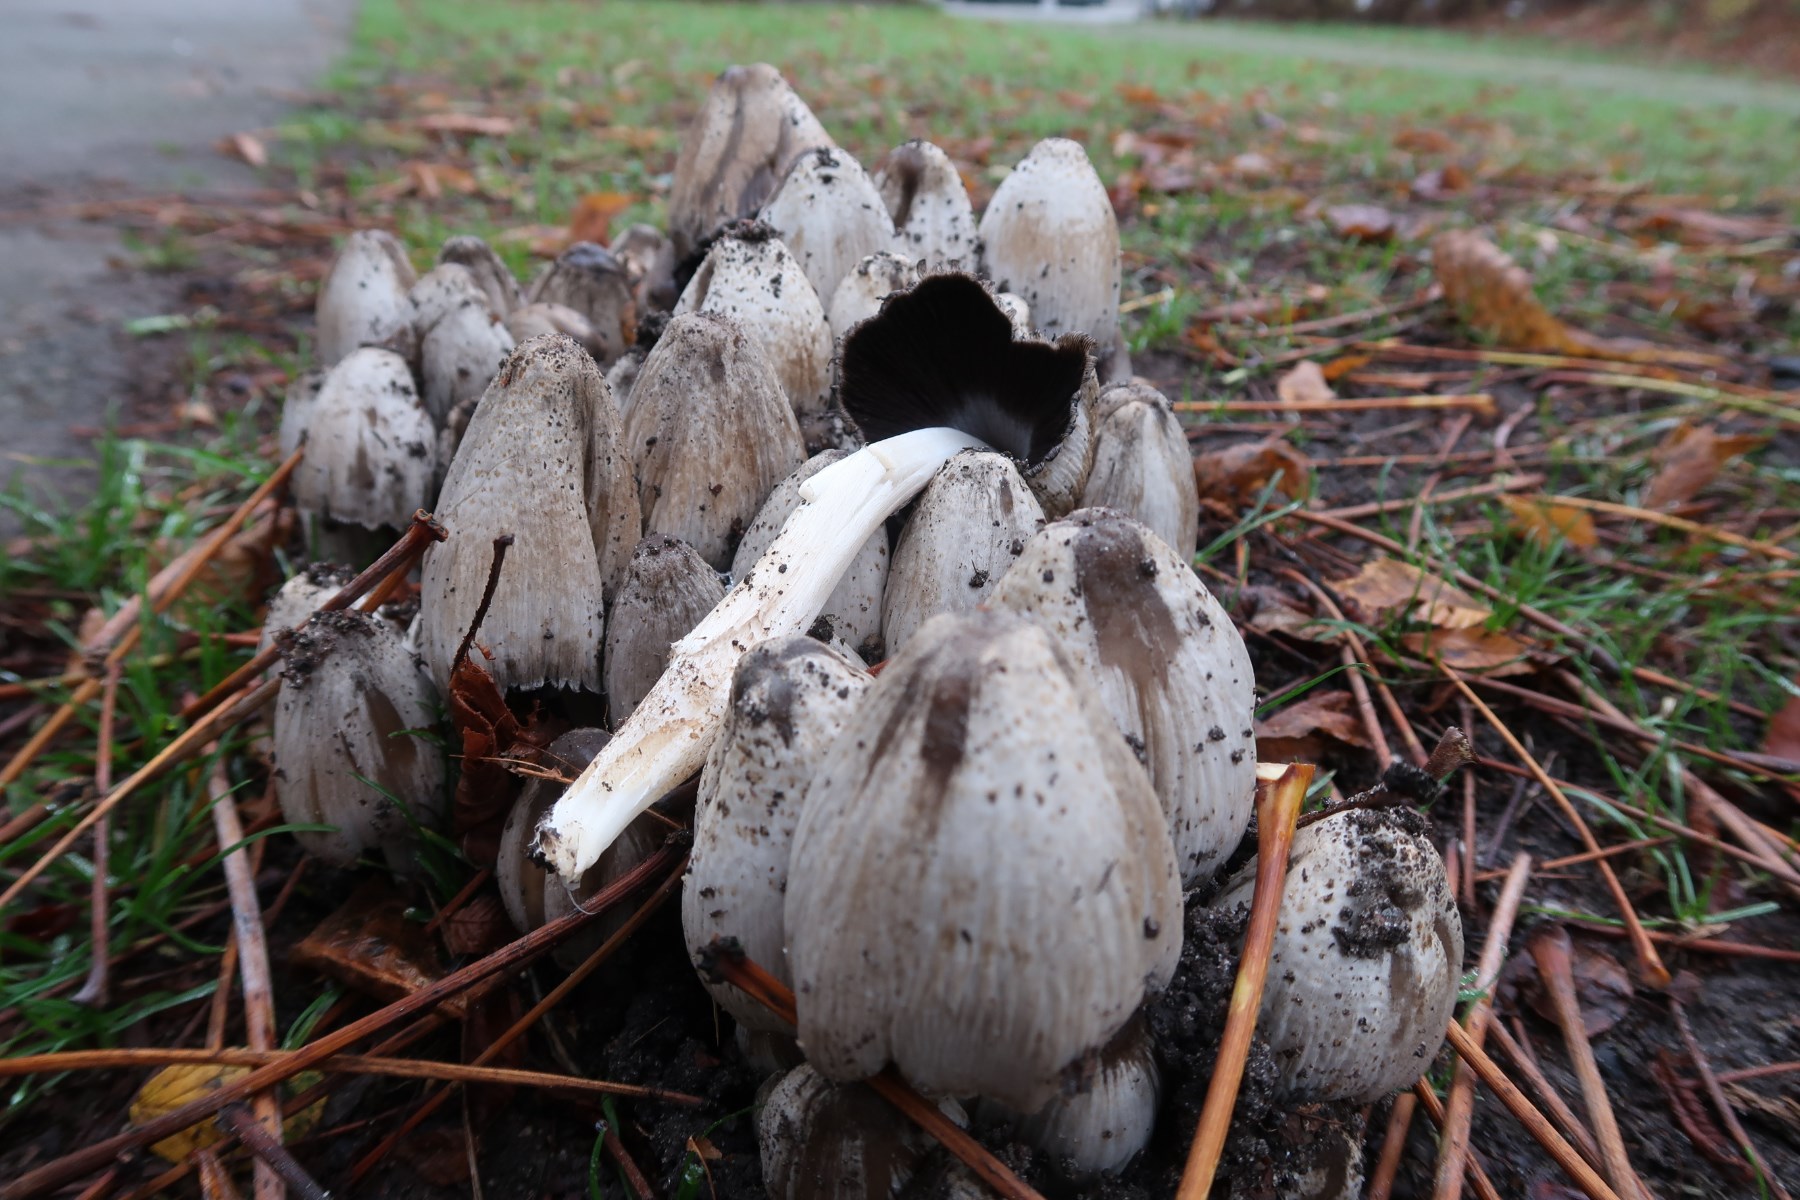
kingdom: Fungi
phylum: Basidiomycota
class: Agaricomycetes
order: Agaricales
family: Psathyrellaceae
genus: Coprinopsis
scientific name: Coprinopsis atramentaria
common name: almindelig blækhat
